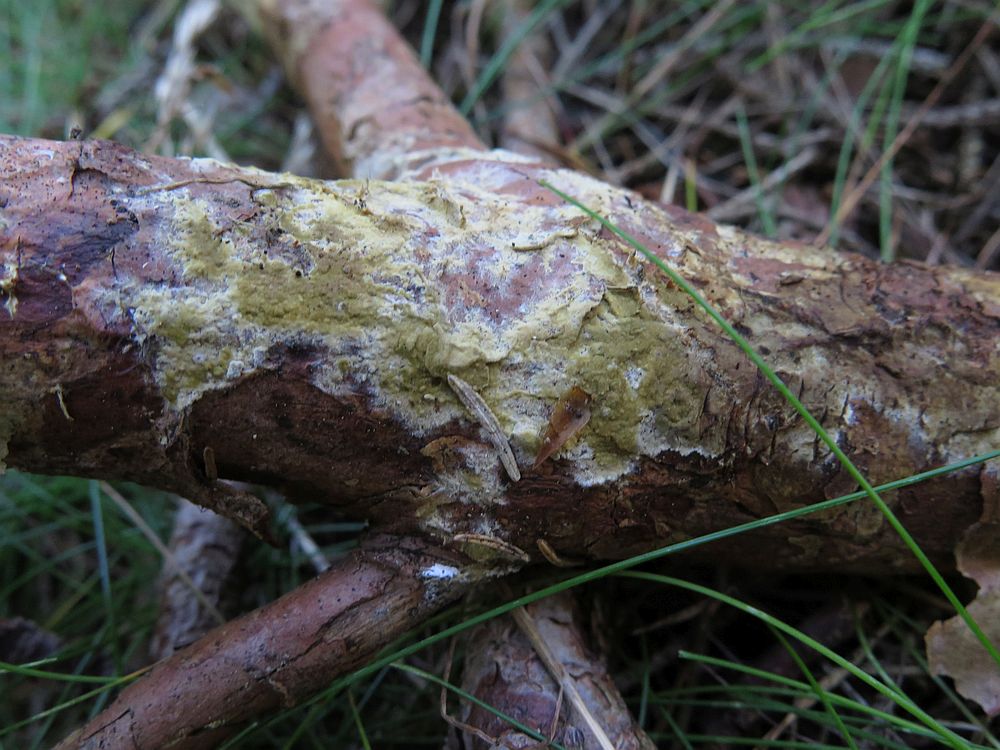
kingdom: Fungi
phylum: Basidiomycota
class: Agaricomycetes
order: Boletales
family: Coniophoraceae
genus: Coniophora
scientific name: Coniophora arida
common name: tynd tømmersvamp
